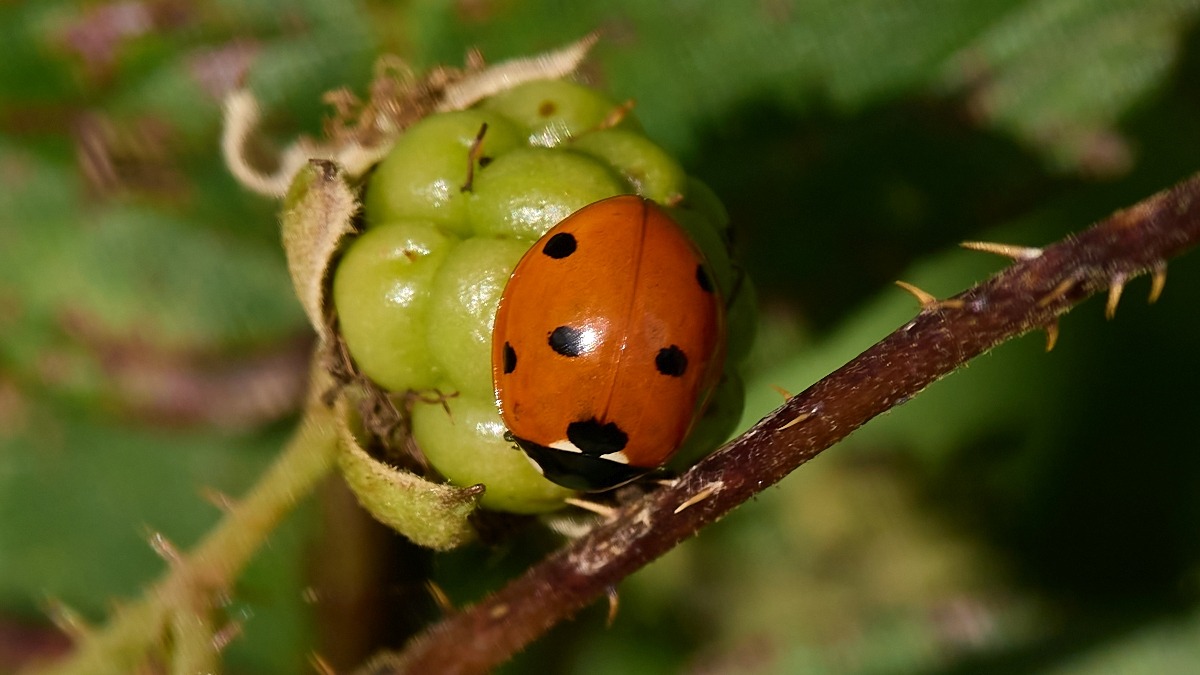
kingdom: Animalia
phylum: Arthropoda
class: Insecta
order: Coleoptera
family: Coccinellidae
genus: Coccinella
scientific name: Coccinella septempunctata
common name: Syvplettet mariehøne
